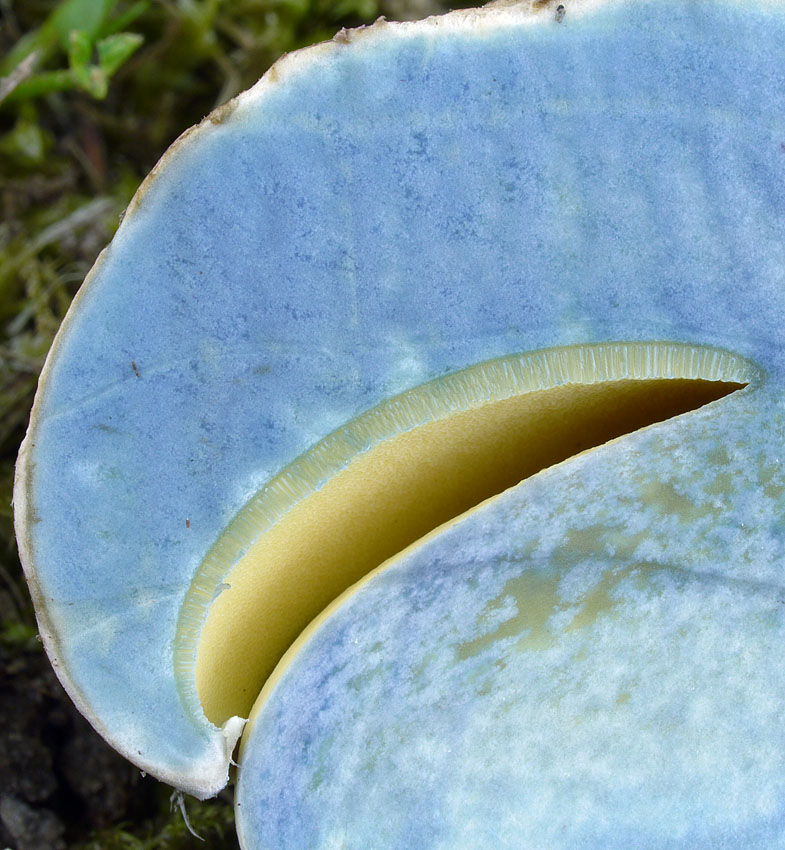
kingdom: Fungi
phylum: Basidiomycota
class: Agaricomycetes
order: Boletales
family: Boletaceae
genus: Caloboletus
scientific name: Caloboletus radicans
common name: rod-rørhat
